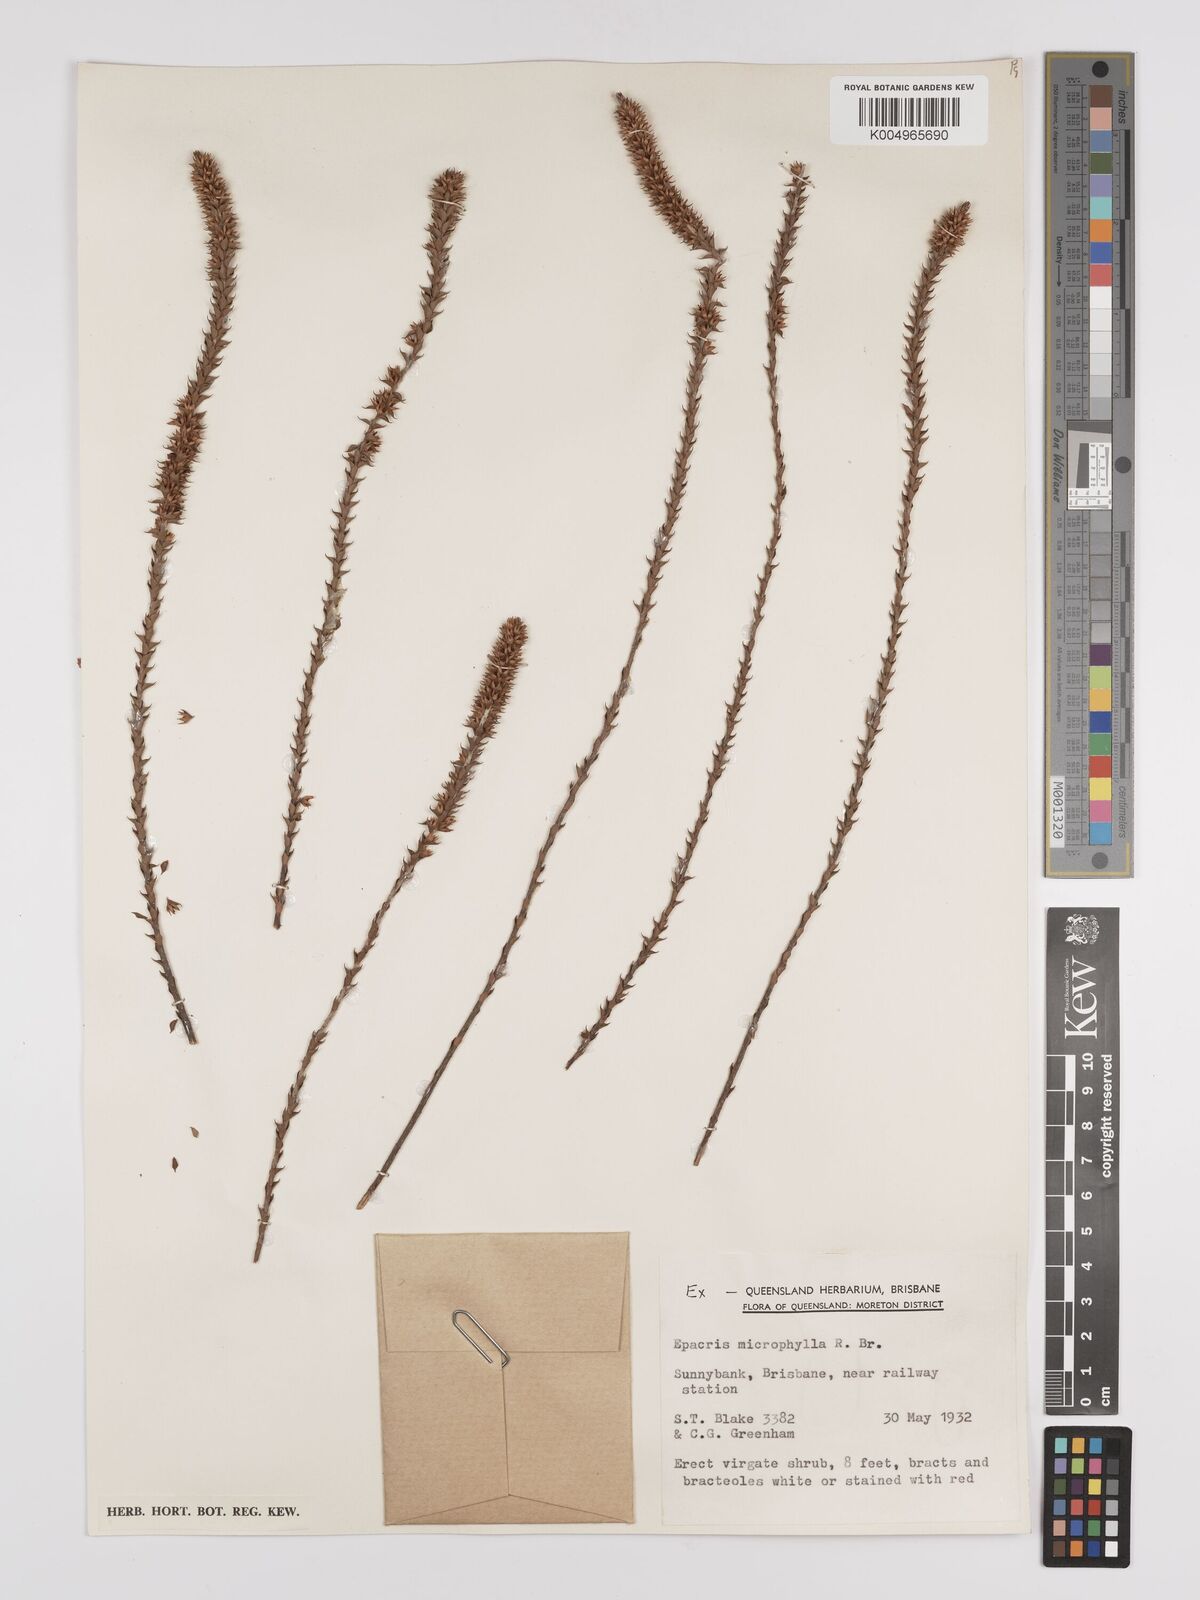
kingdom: Plantae
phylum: Tracheophyta
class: Magnoliopsida
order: Ericales
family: Ericaceae
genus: Epacris
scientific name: Epacris
